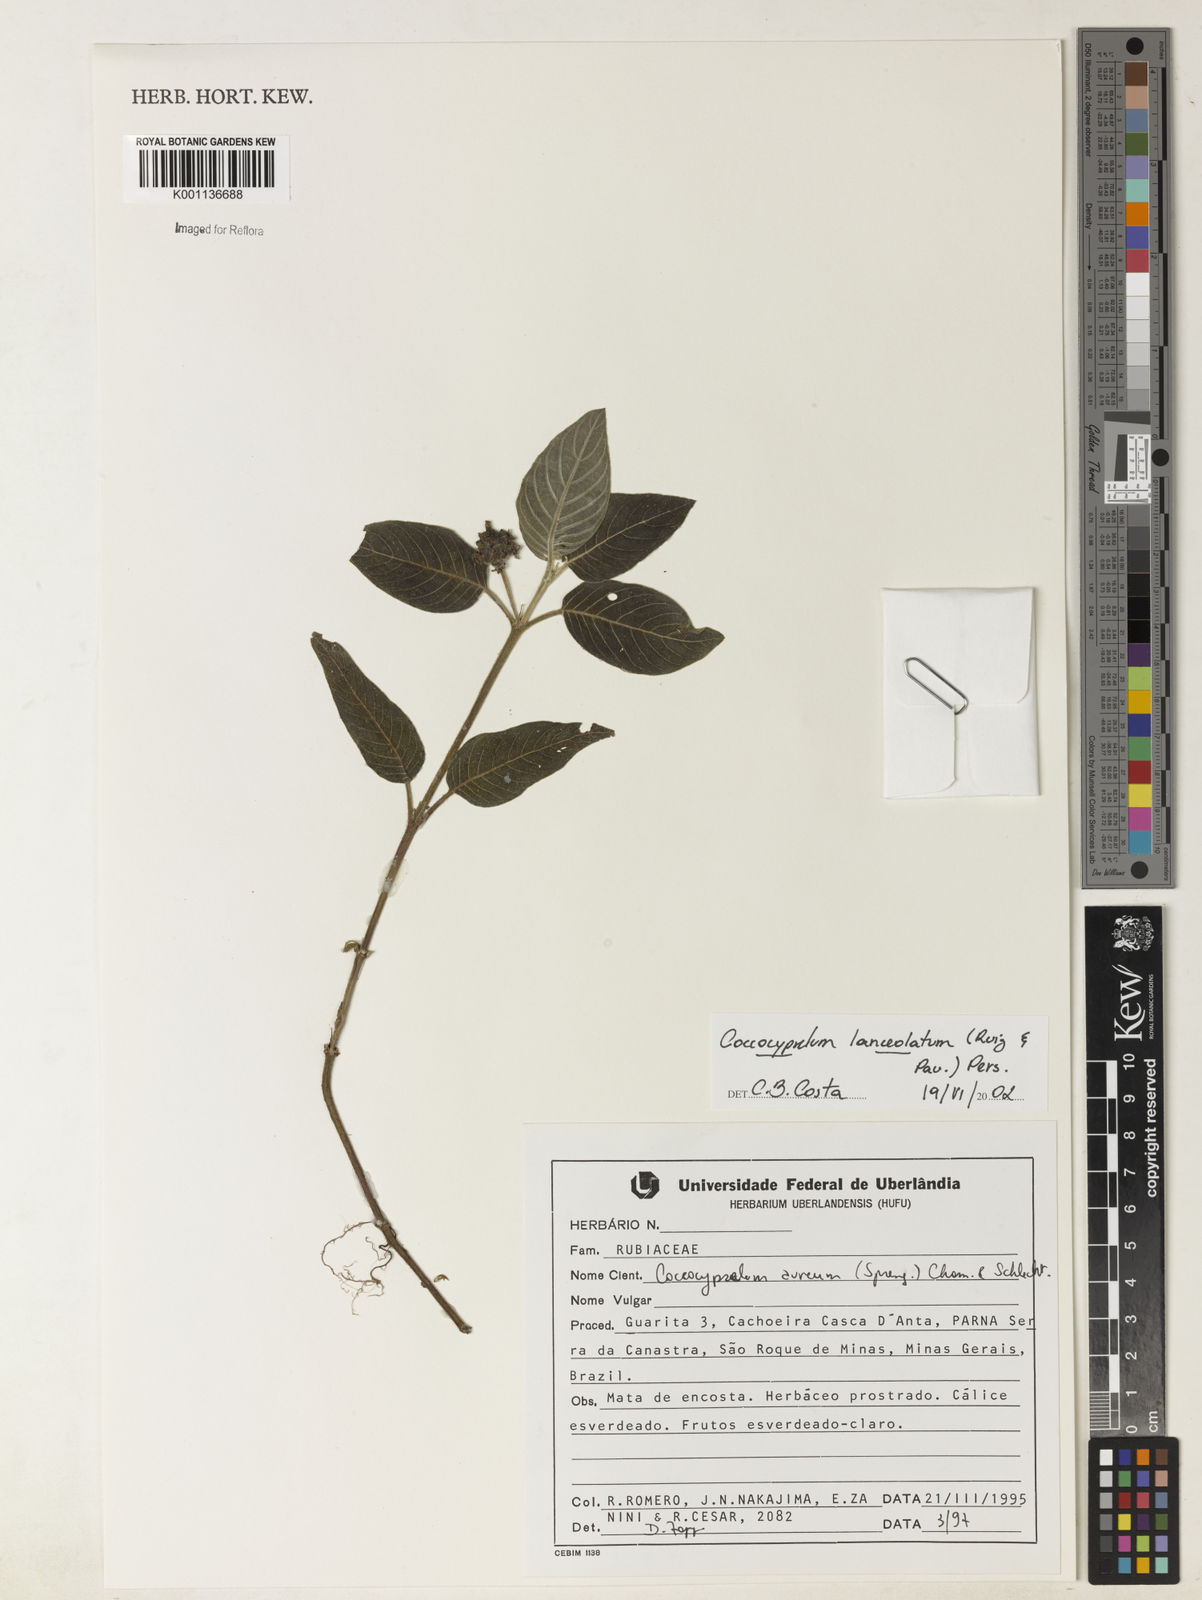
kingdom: Plantae
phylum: Tracheophyta
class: Magnoliopsida
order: Gentianales
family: Rubiaceae
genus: Coccocypselum
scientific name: Coccocypselum lanceolatum
